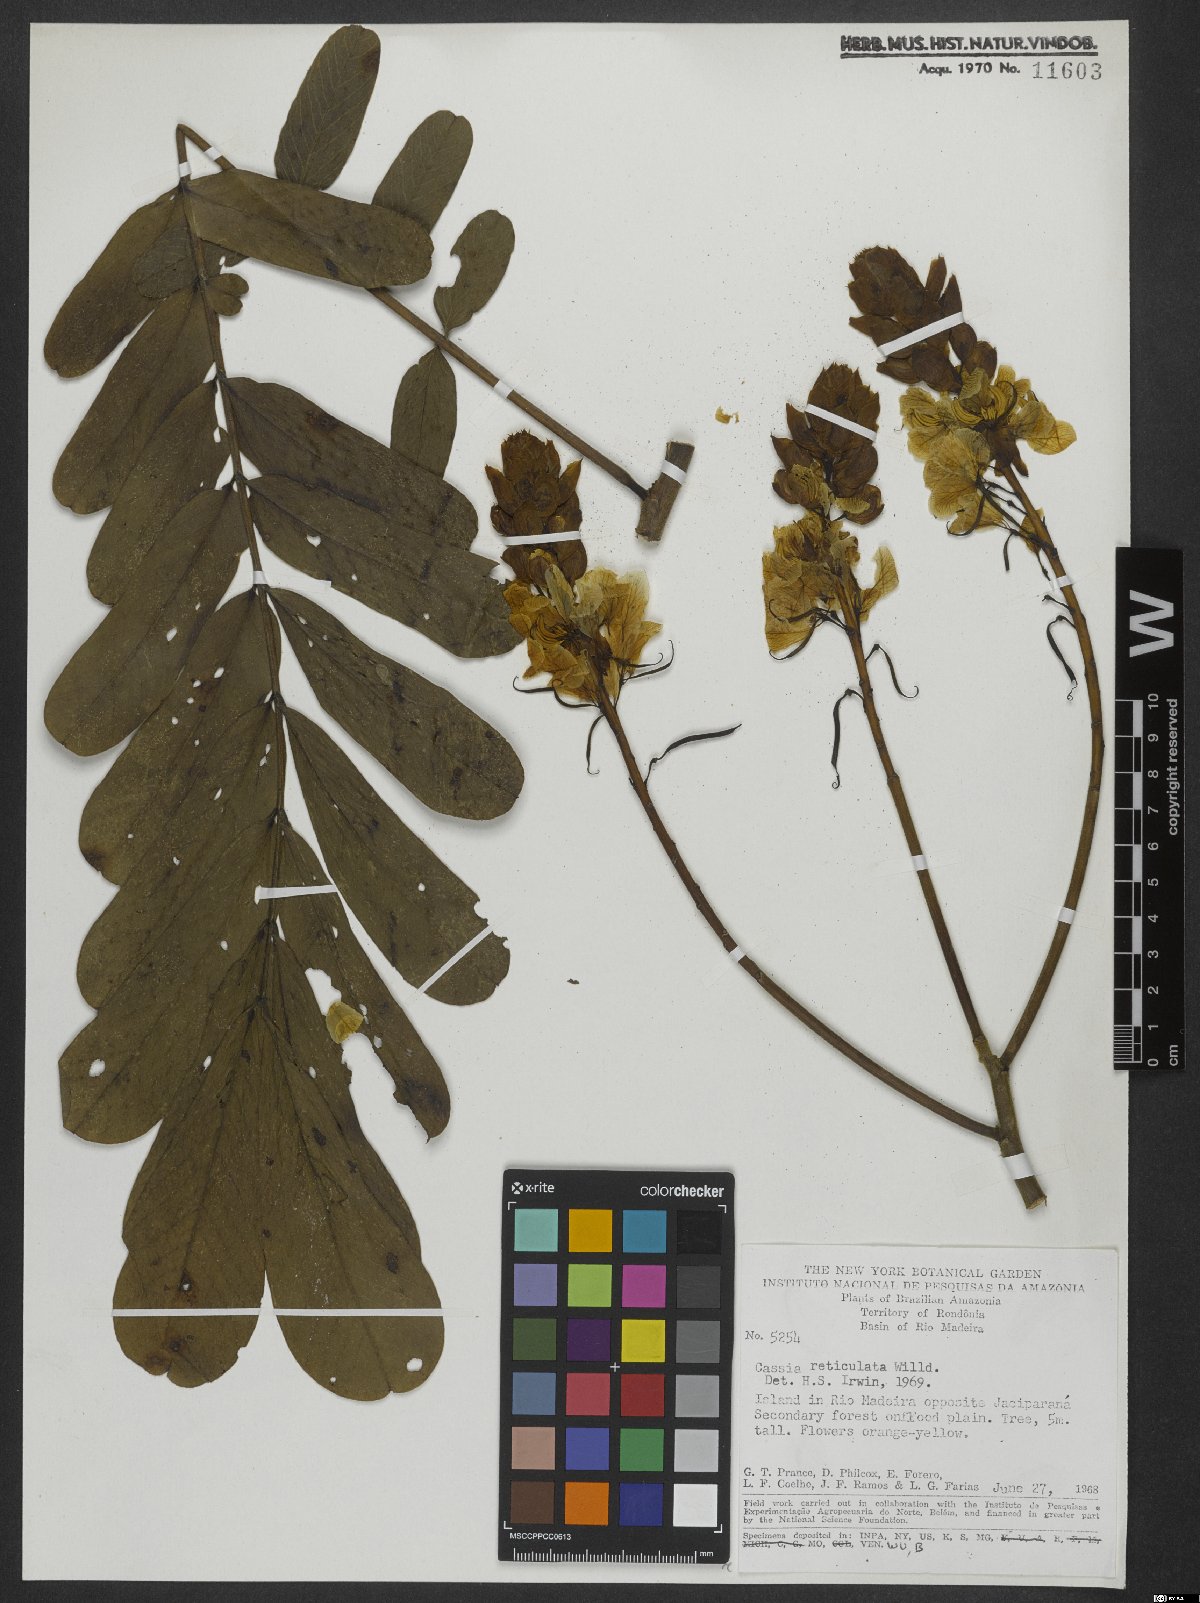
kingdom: Plantae
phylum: Tracheophyta
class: Magnoliopsida
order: Fabales
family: Fabaceae
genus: Senna
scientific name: Senna reticulata
